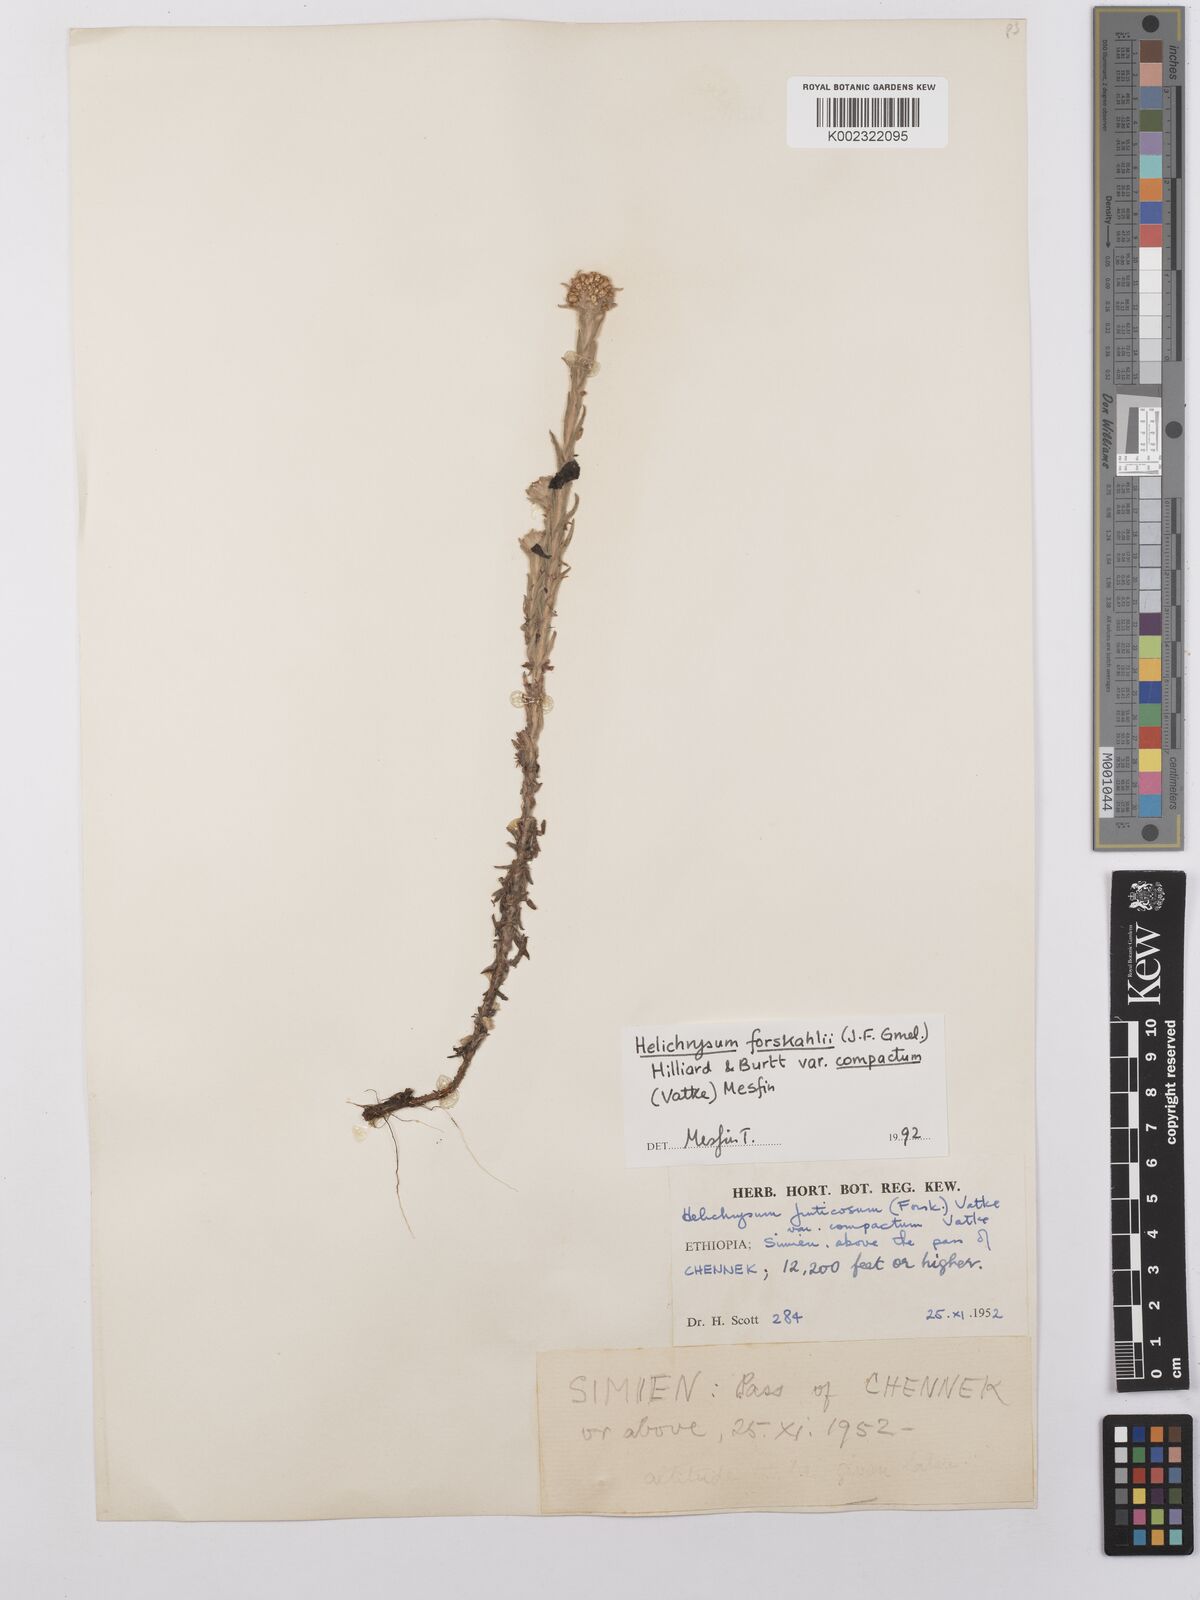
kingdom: Plantae
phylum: Tracheophyta
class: Magnoliopsida
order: Asterales
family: Asteraceae
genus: Helichrysum
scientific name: Helichrysum forskahlii
